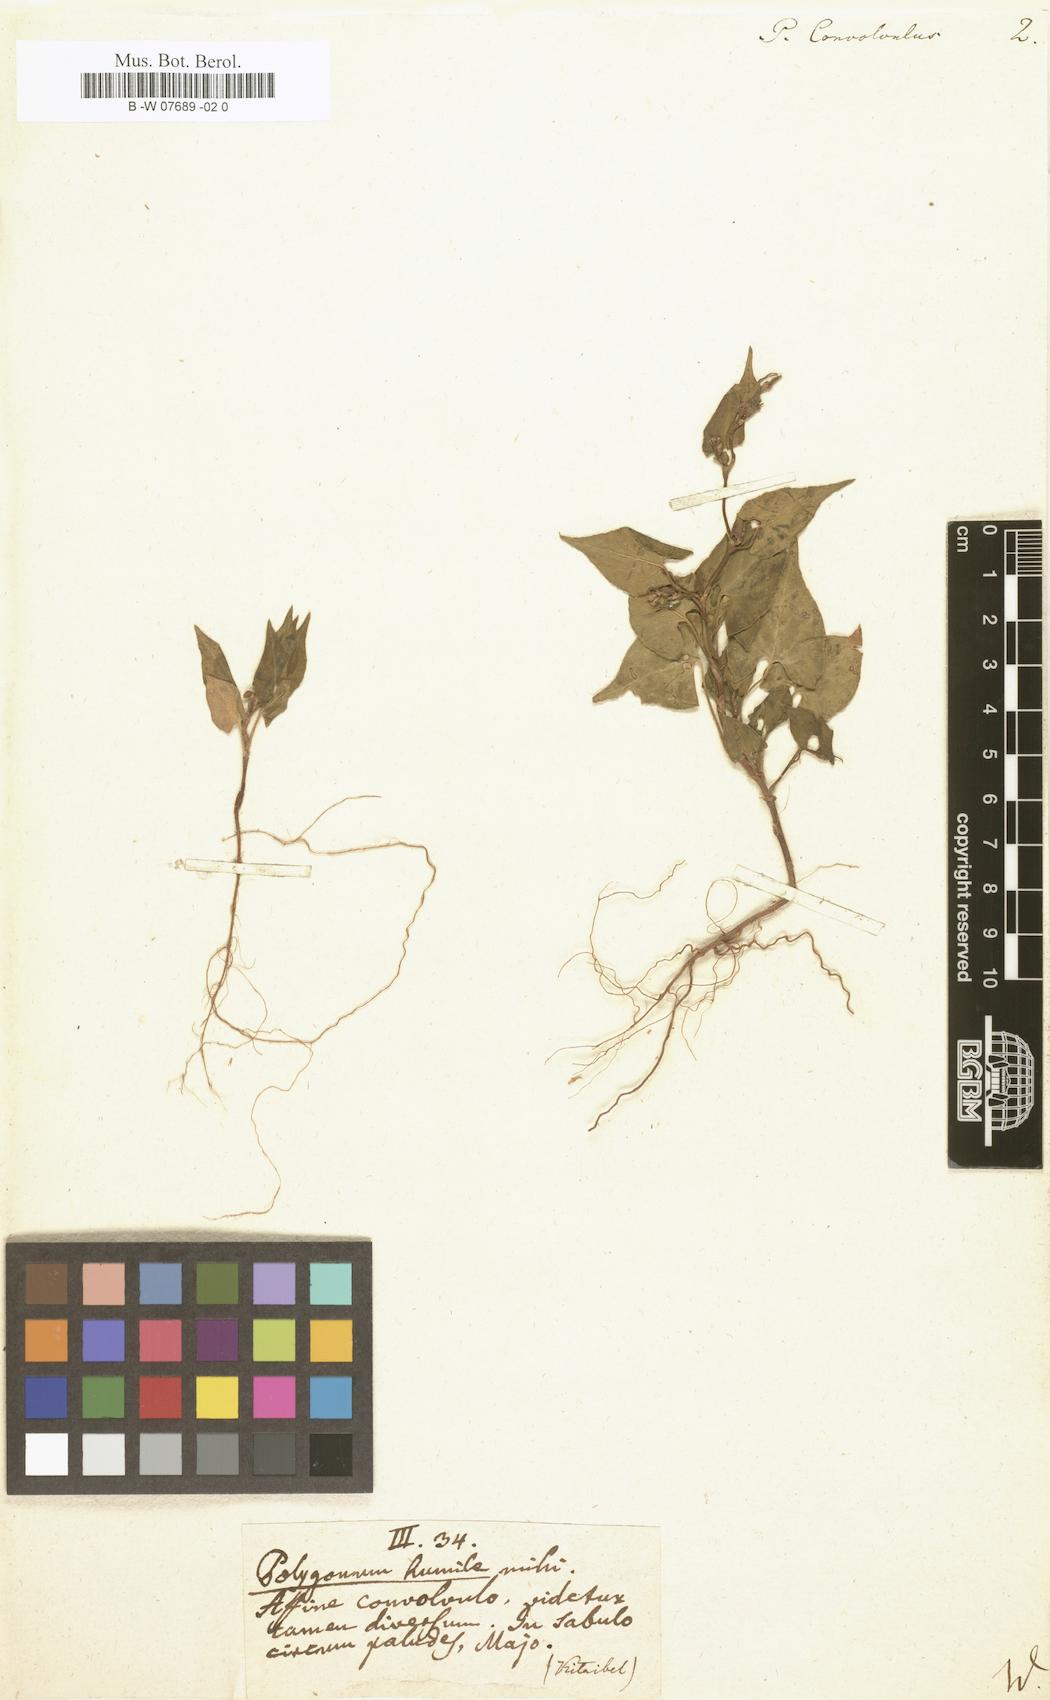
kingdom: Plantae
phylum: Tracheophyta
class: Magnoliopsida
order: Caryophyllales
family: Polygonaceae
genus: Fallopia
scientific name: Fallopia convolvulus
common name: Black bindweed
